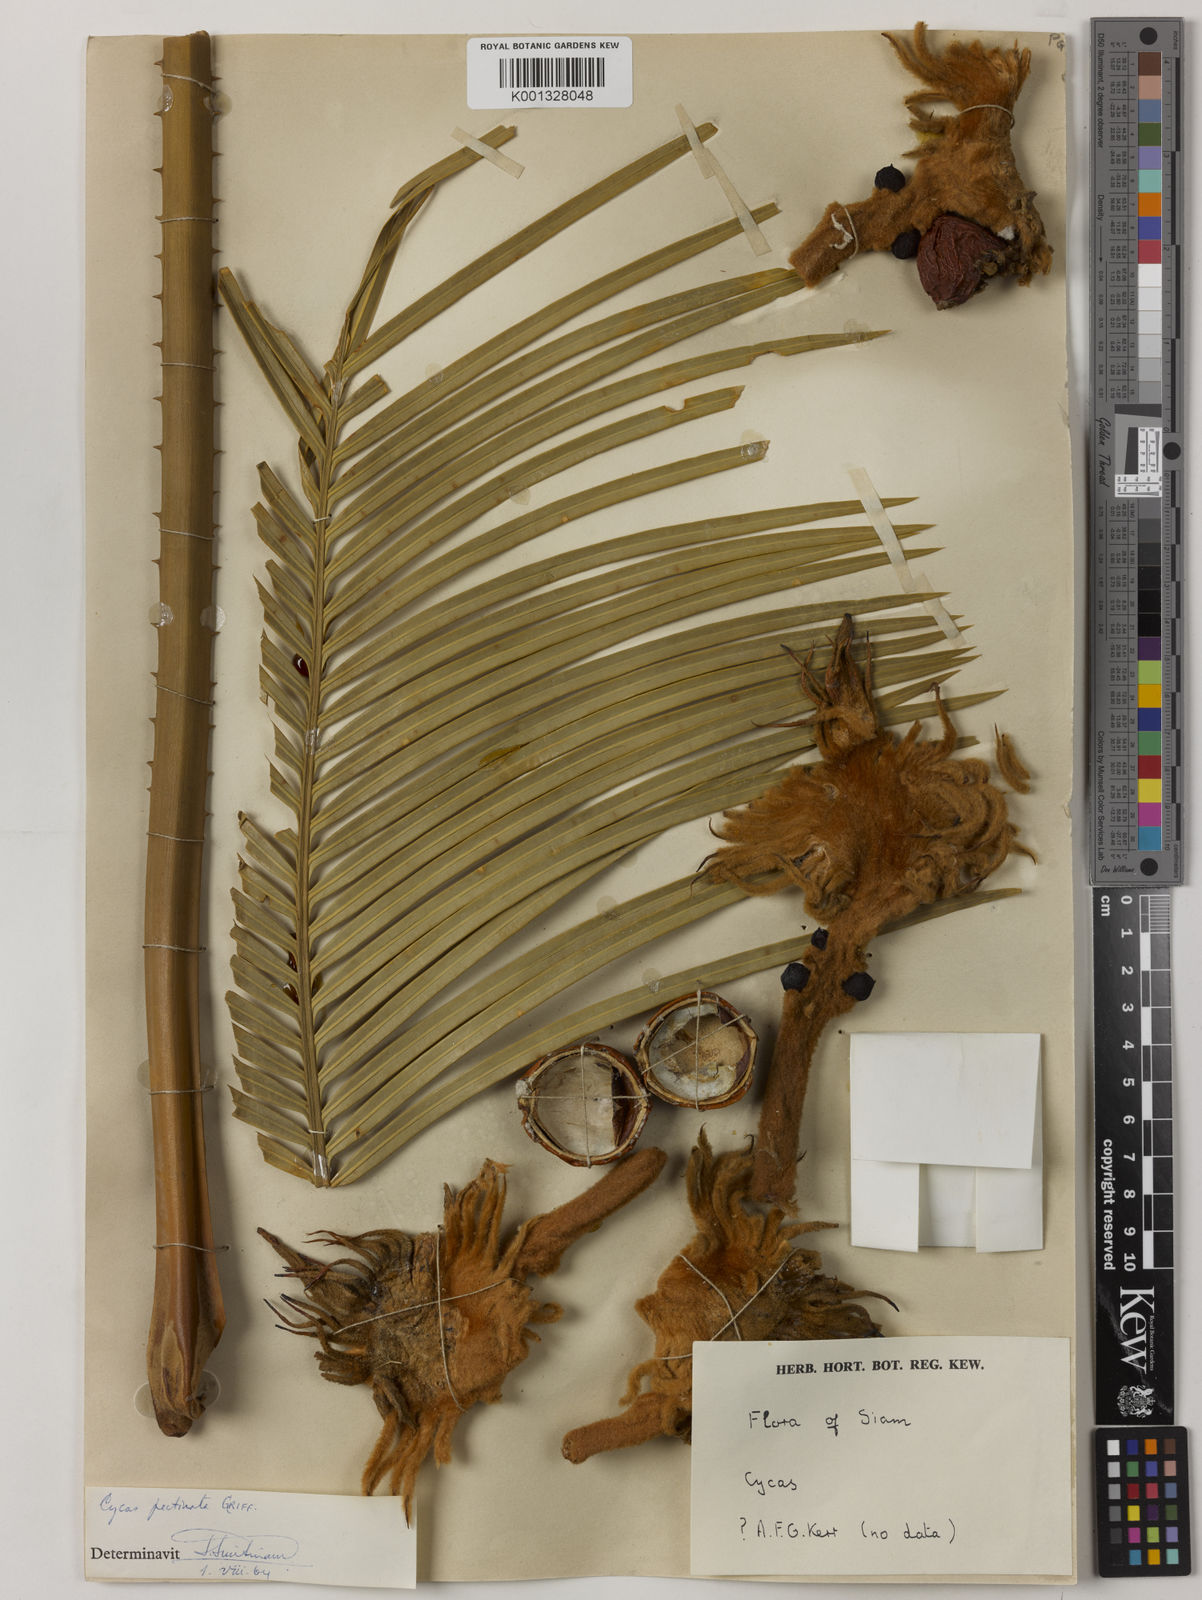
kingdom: Plantae
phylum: Tracheophyta
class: Cycadopsida
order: Cycadales
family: Cycadaceae
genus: Cycas
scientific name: Cycas
